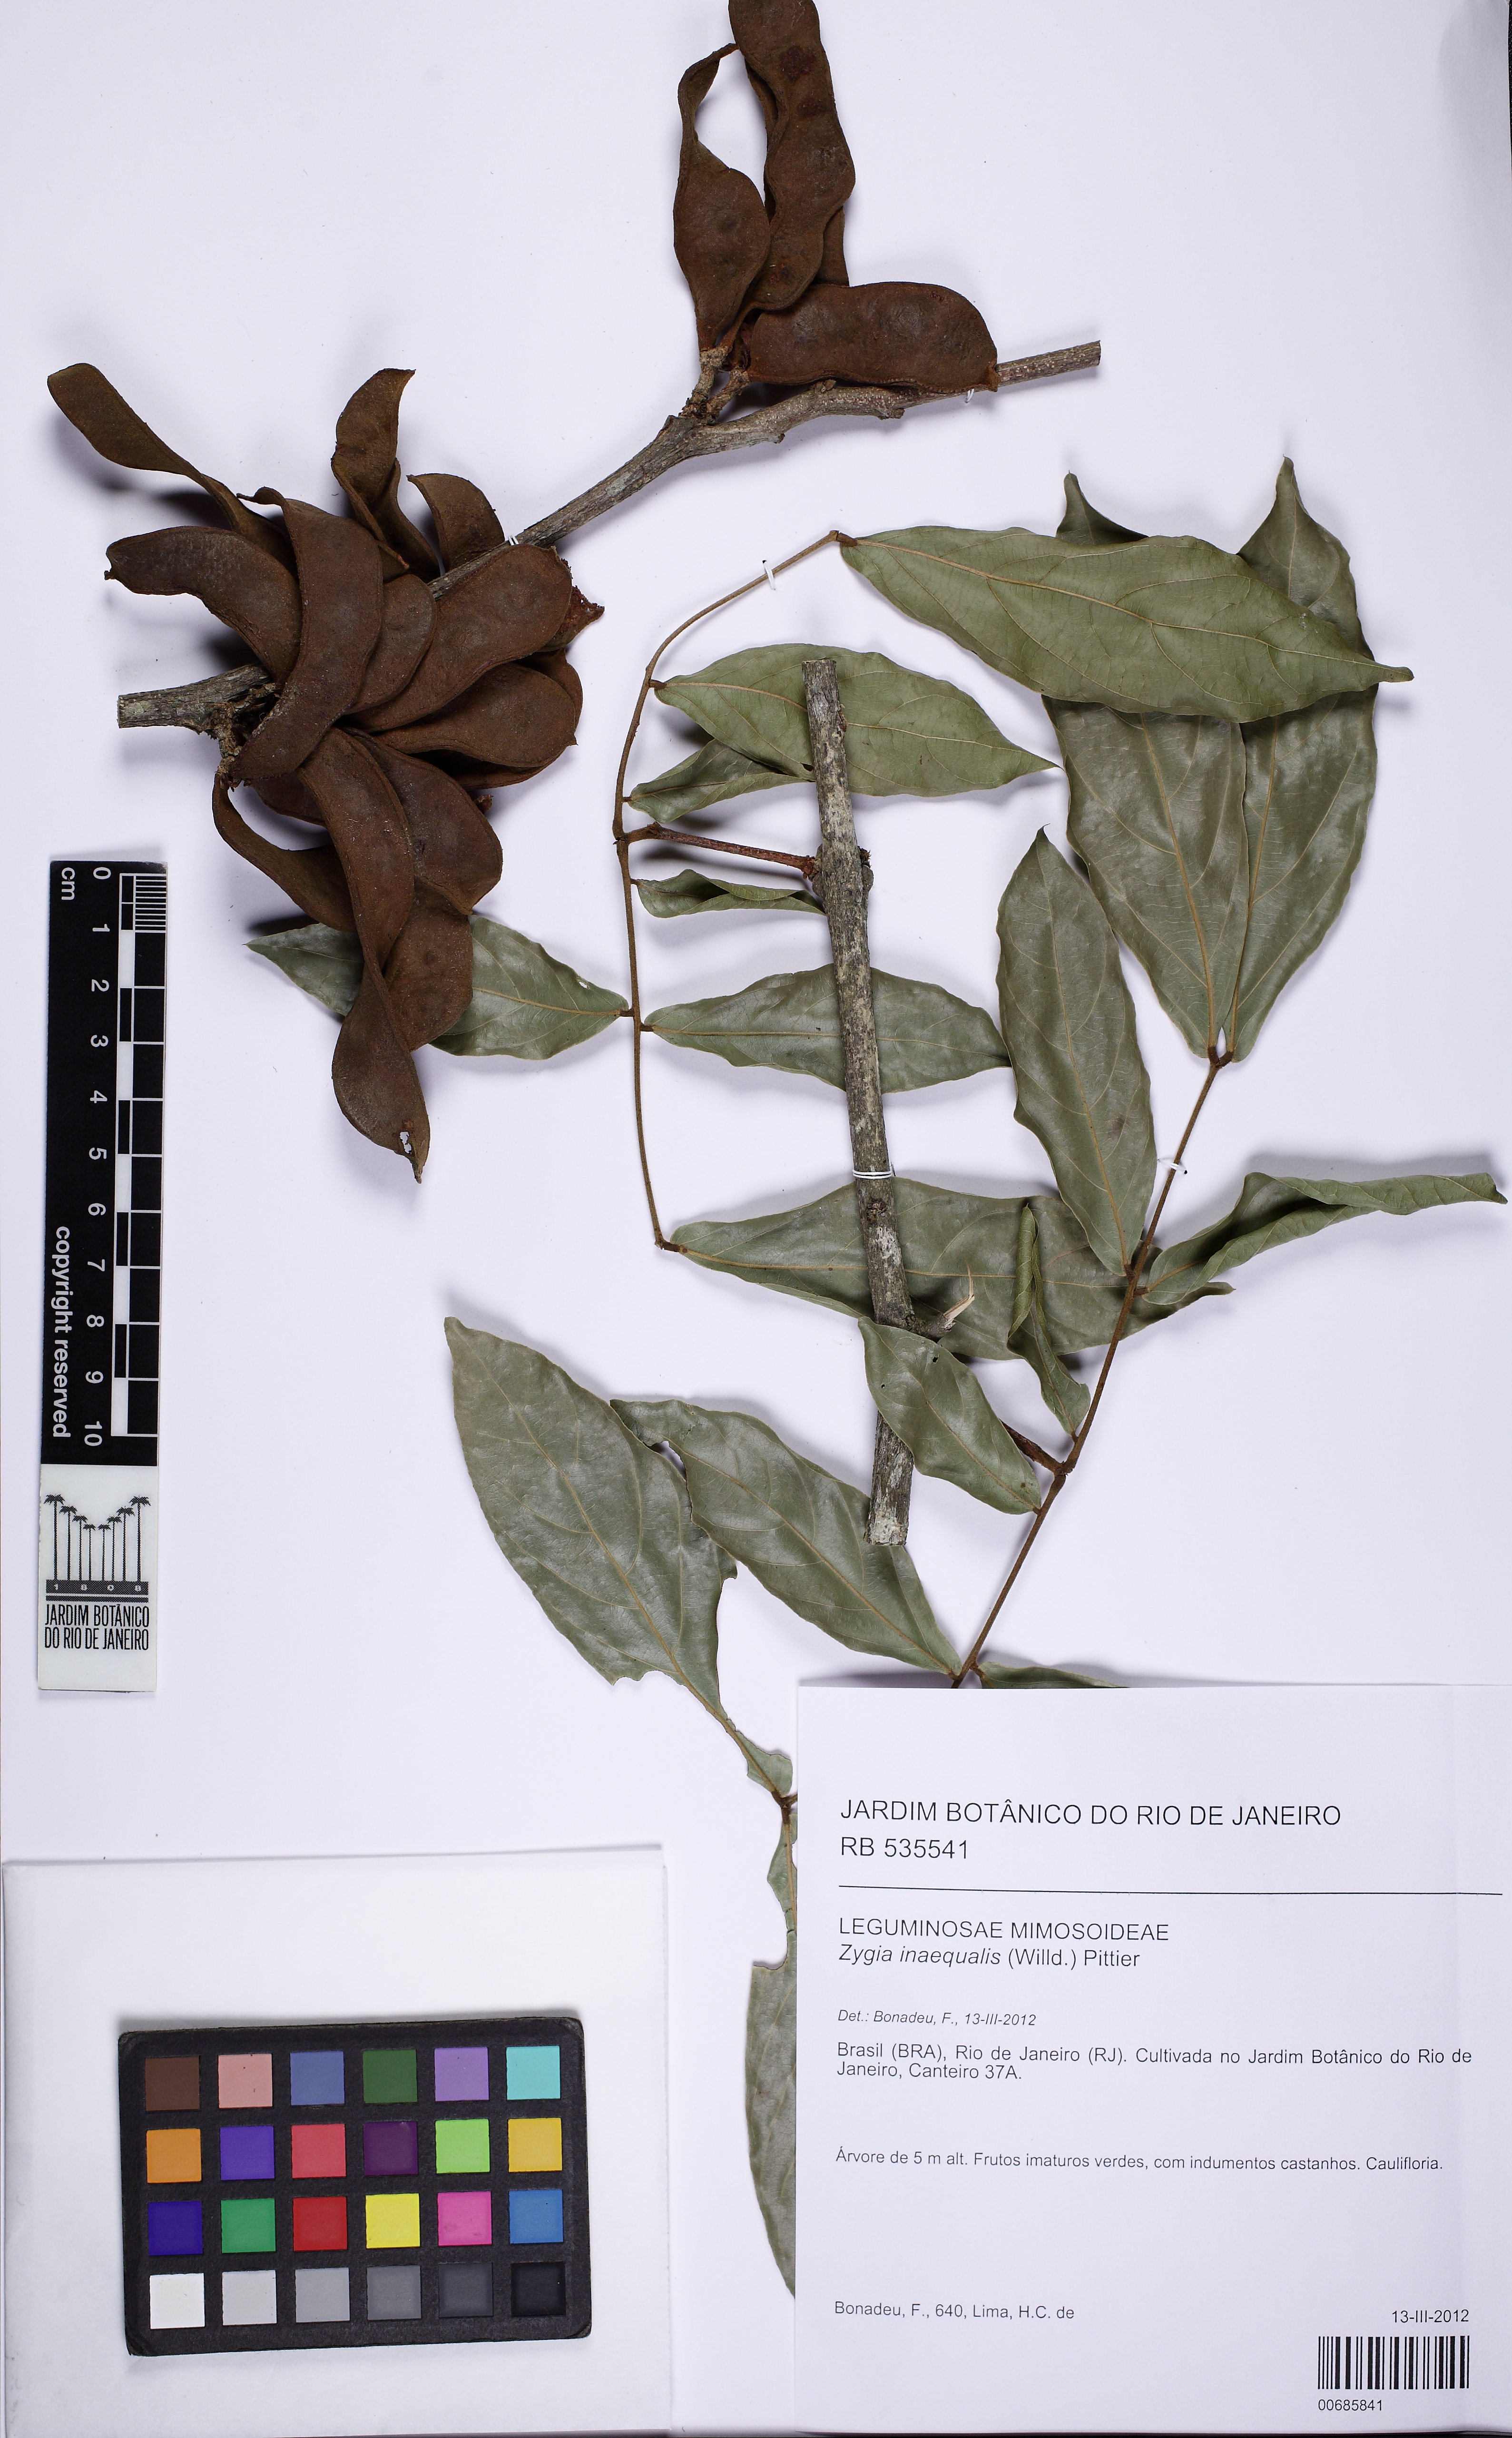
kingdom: Plantae
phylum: Tracheophyta
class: Magnoliopsida
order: Fabales
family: Fabaceae
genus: Zygia
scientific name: Zygia inaequalis
